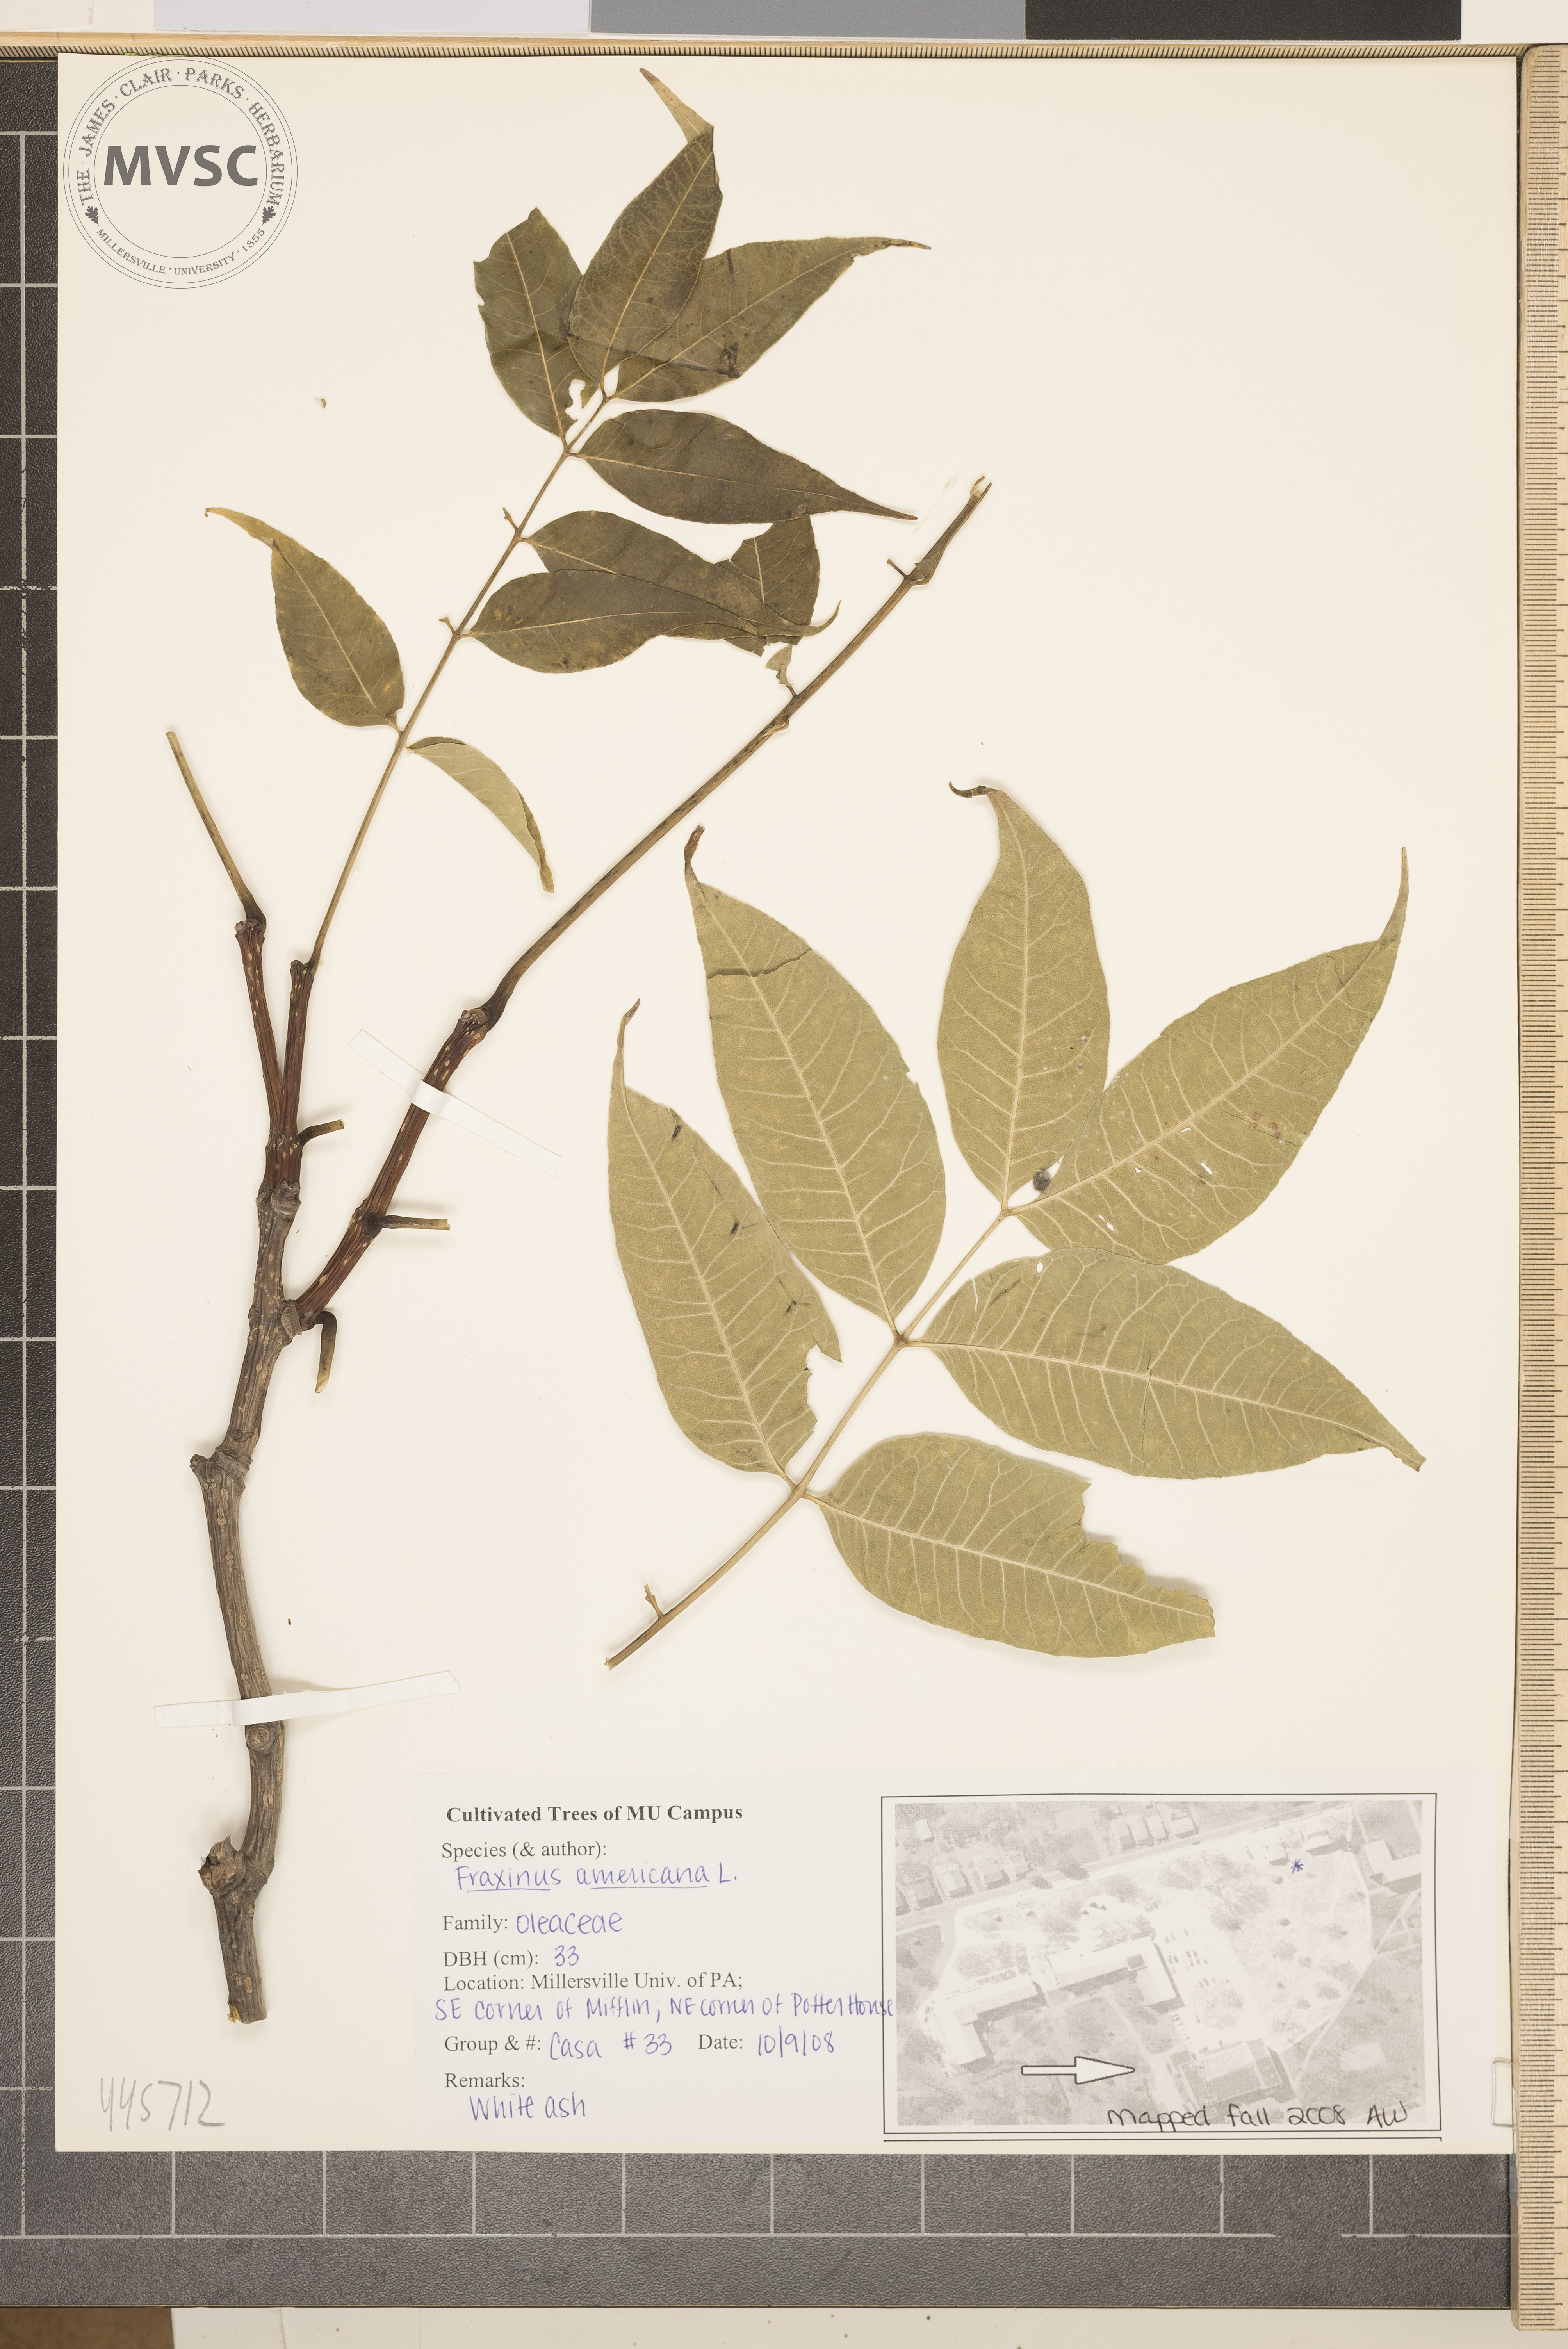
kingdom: Plantae
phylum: Tracheophyta
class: Magnoliopsida
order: Lamiales
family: Oleaceae
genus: Fraxinus
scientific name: Fraxinus americana
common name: White ash
